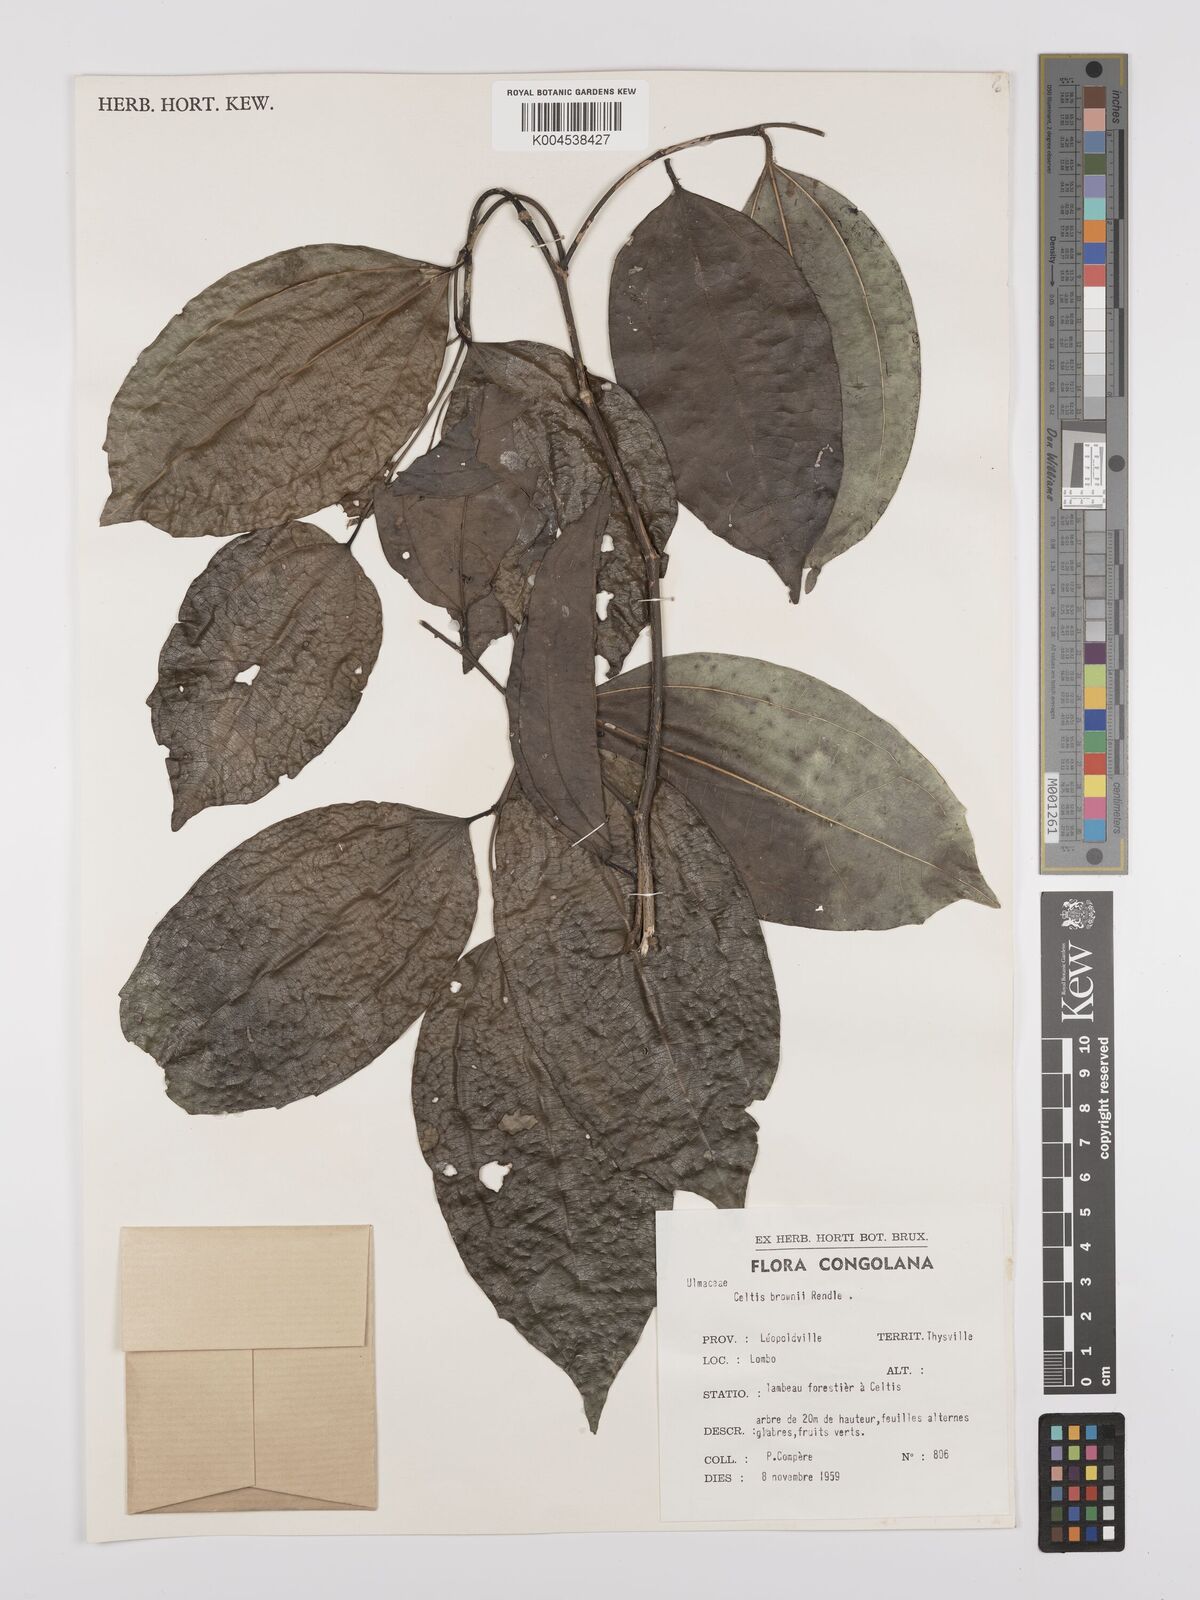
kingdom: Plantae
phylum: Tracheophyta
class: Magnoliopsida
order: Rosales
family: Cannabaceae
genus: Celtis
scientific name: Celtis philippensis
